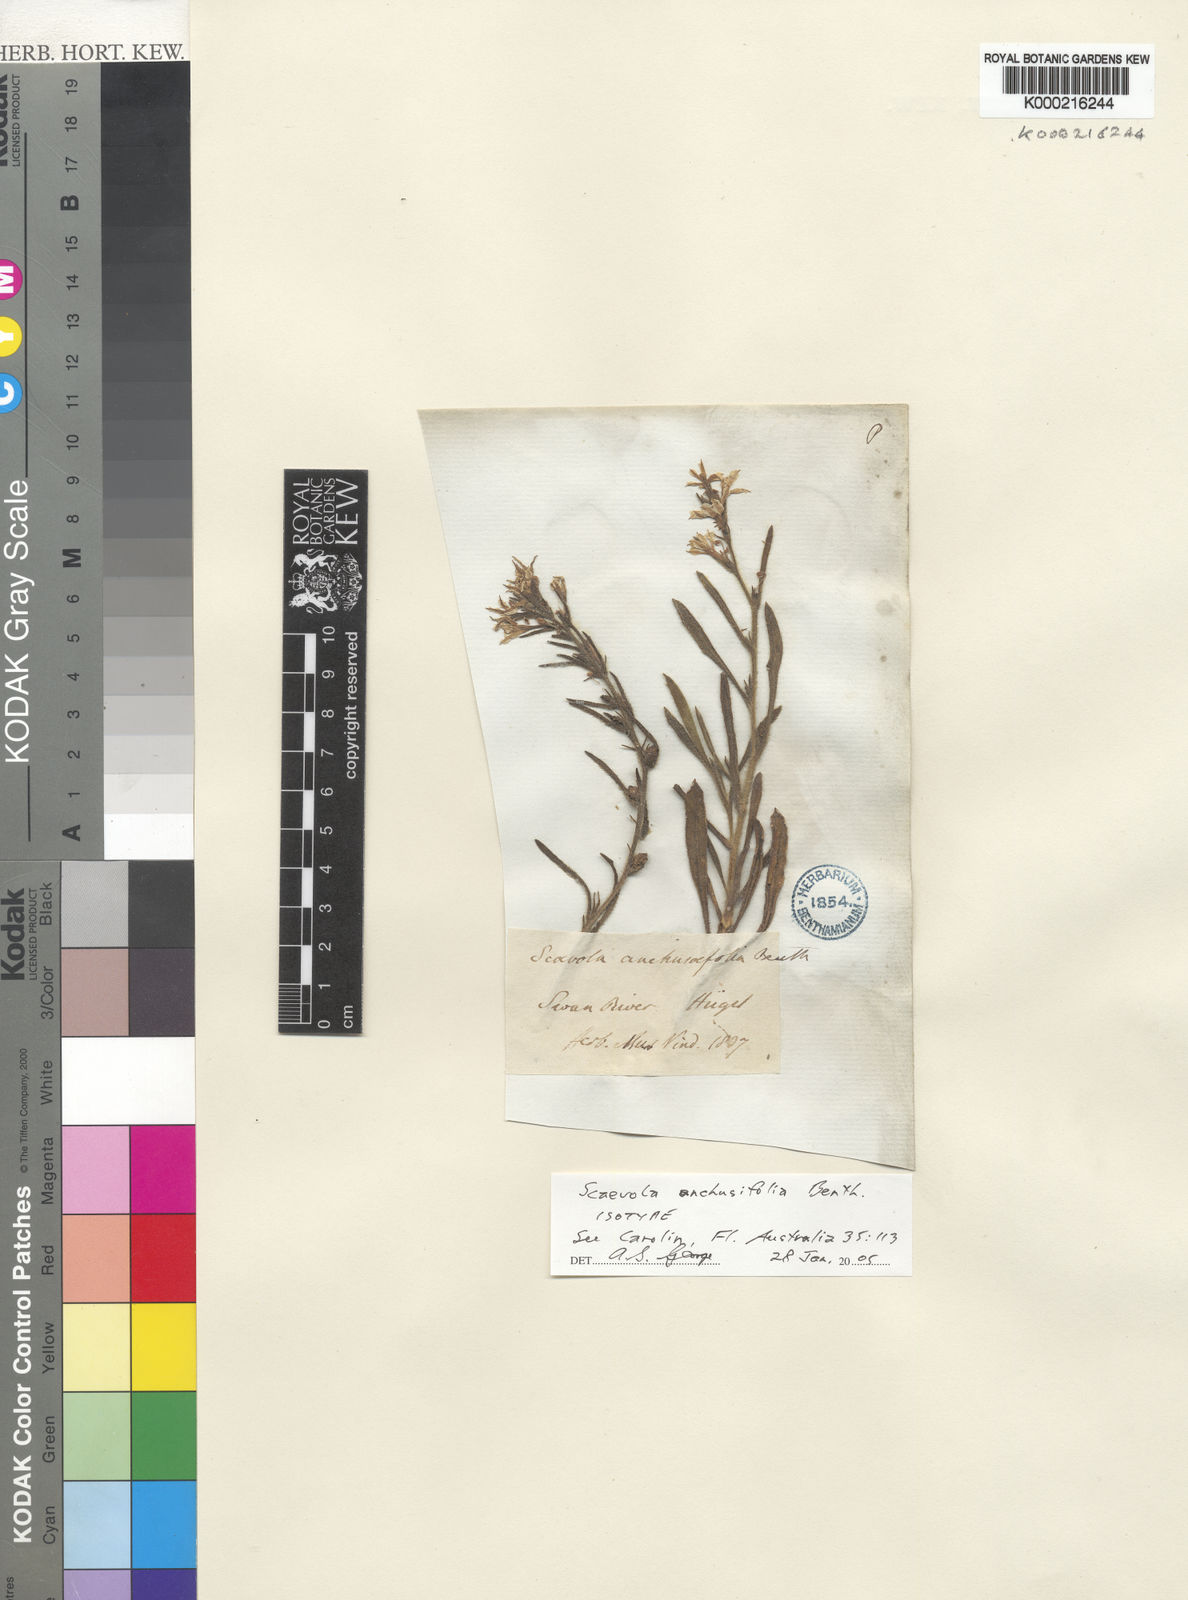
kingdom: Plantae
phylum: Tracheophyta
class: Magnoliopsida
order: Asterales
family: Goodeniaceae
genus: Scaevola
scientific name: Scaevola anchusifolia
